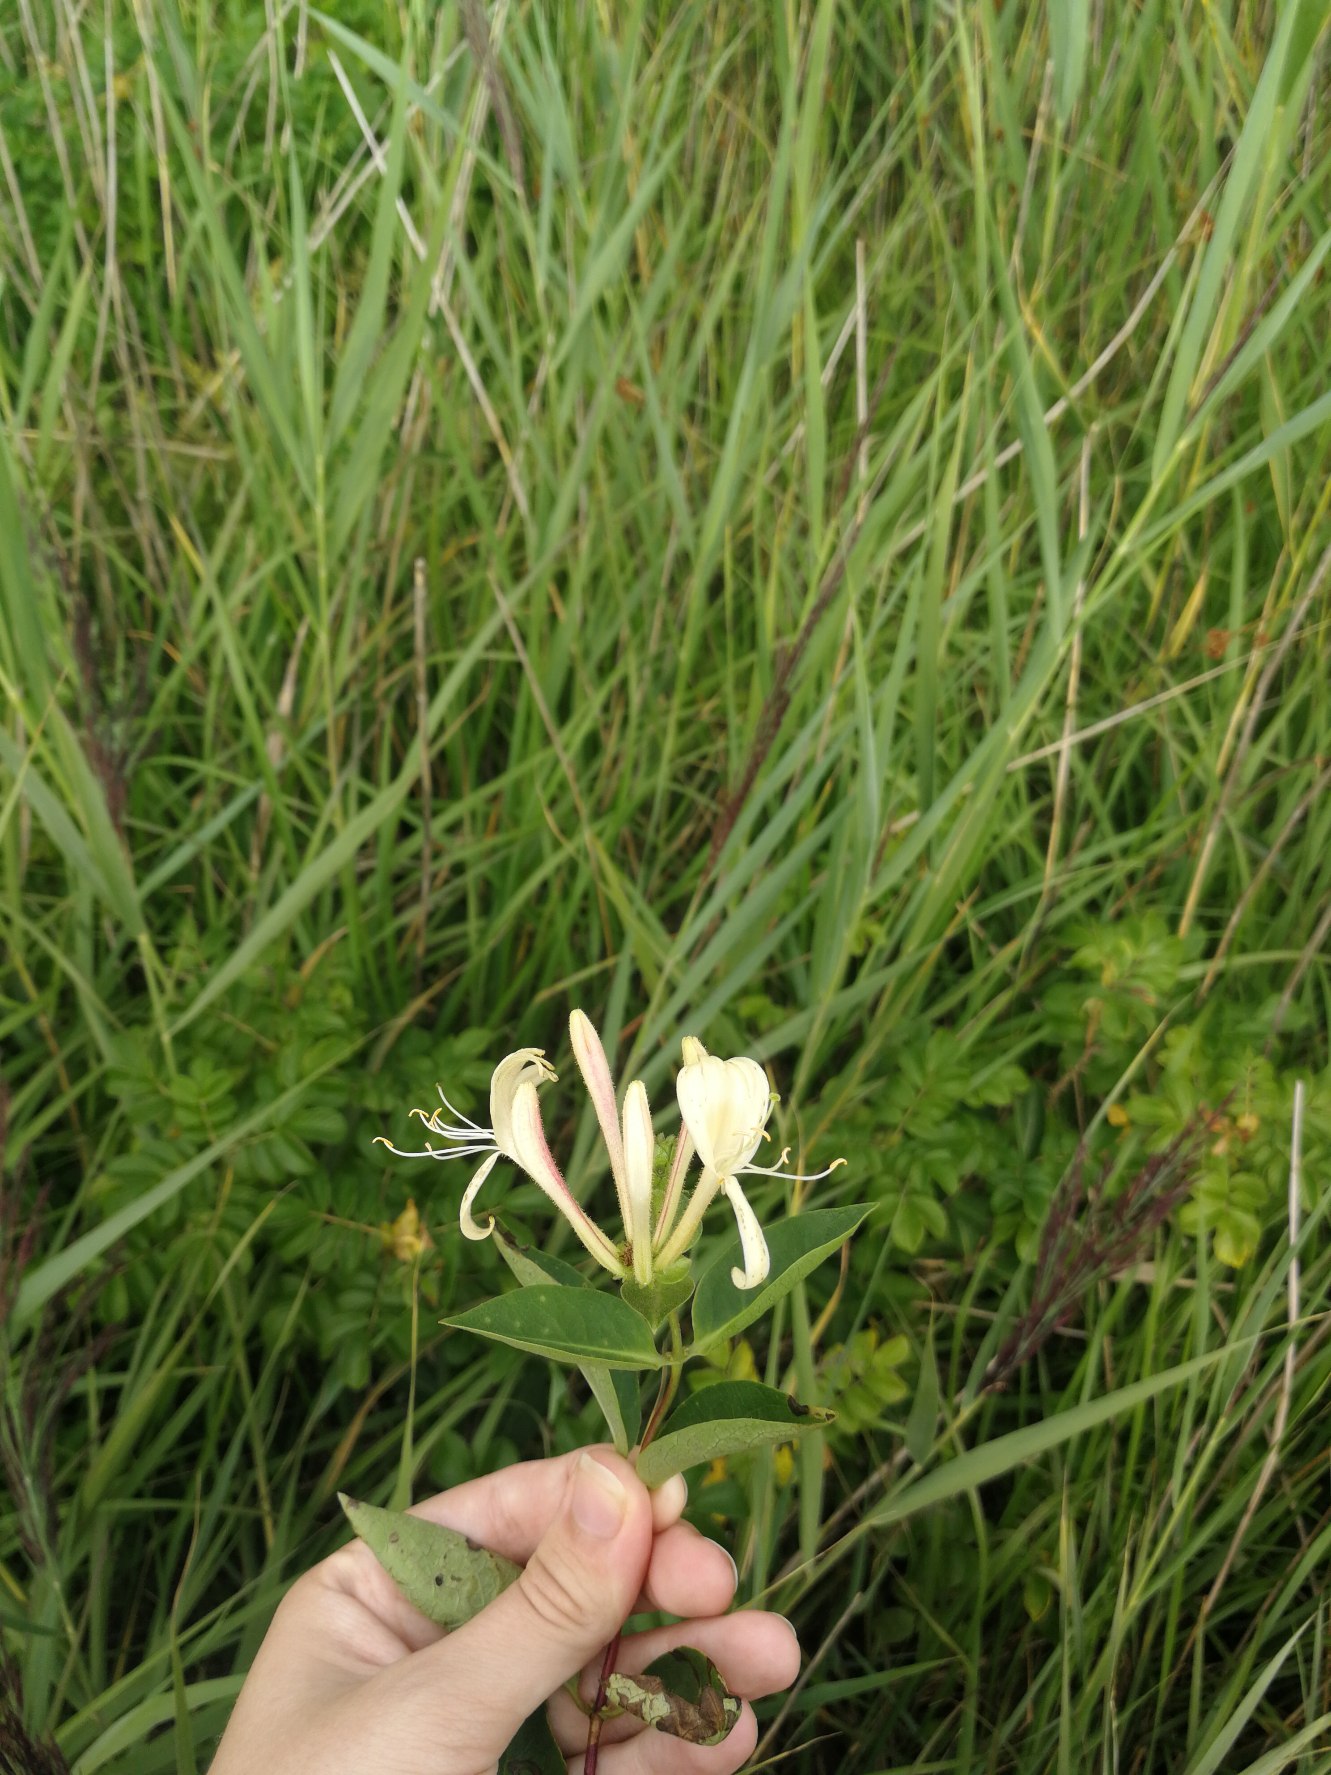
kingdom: Plantae
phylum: Tracheophyta
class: Magnoliopsida
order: Dipsacales
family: Caprifoliaceae
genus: Lonicera
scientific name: Lonicera periclymenum
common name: Almindelig gedeblad
